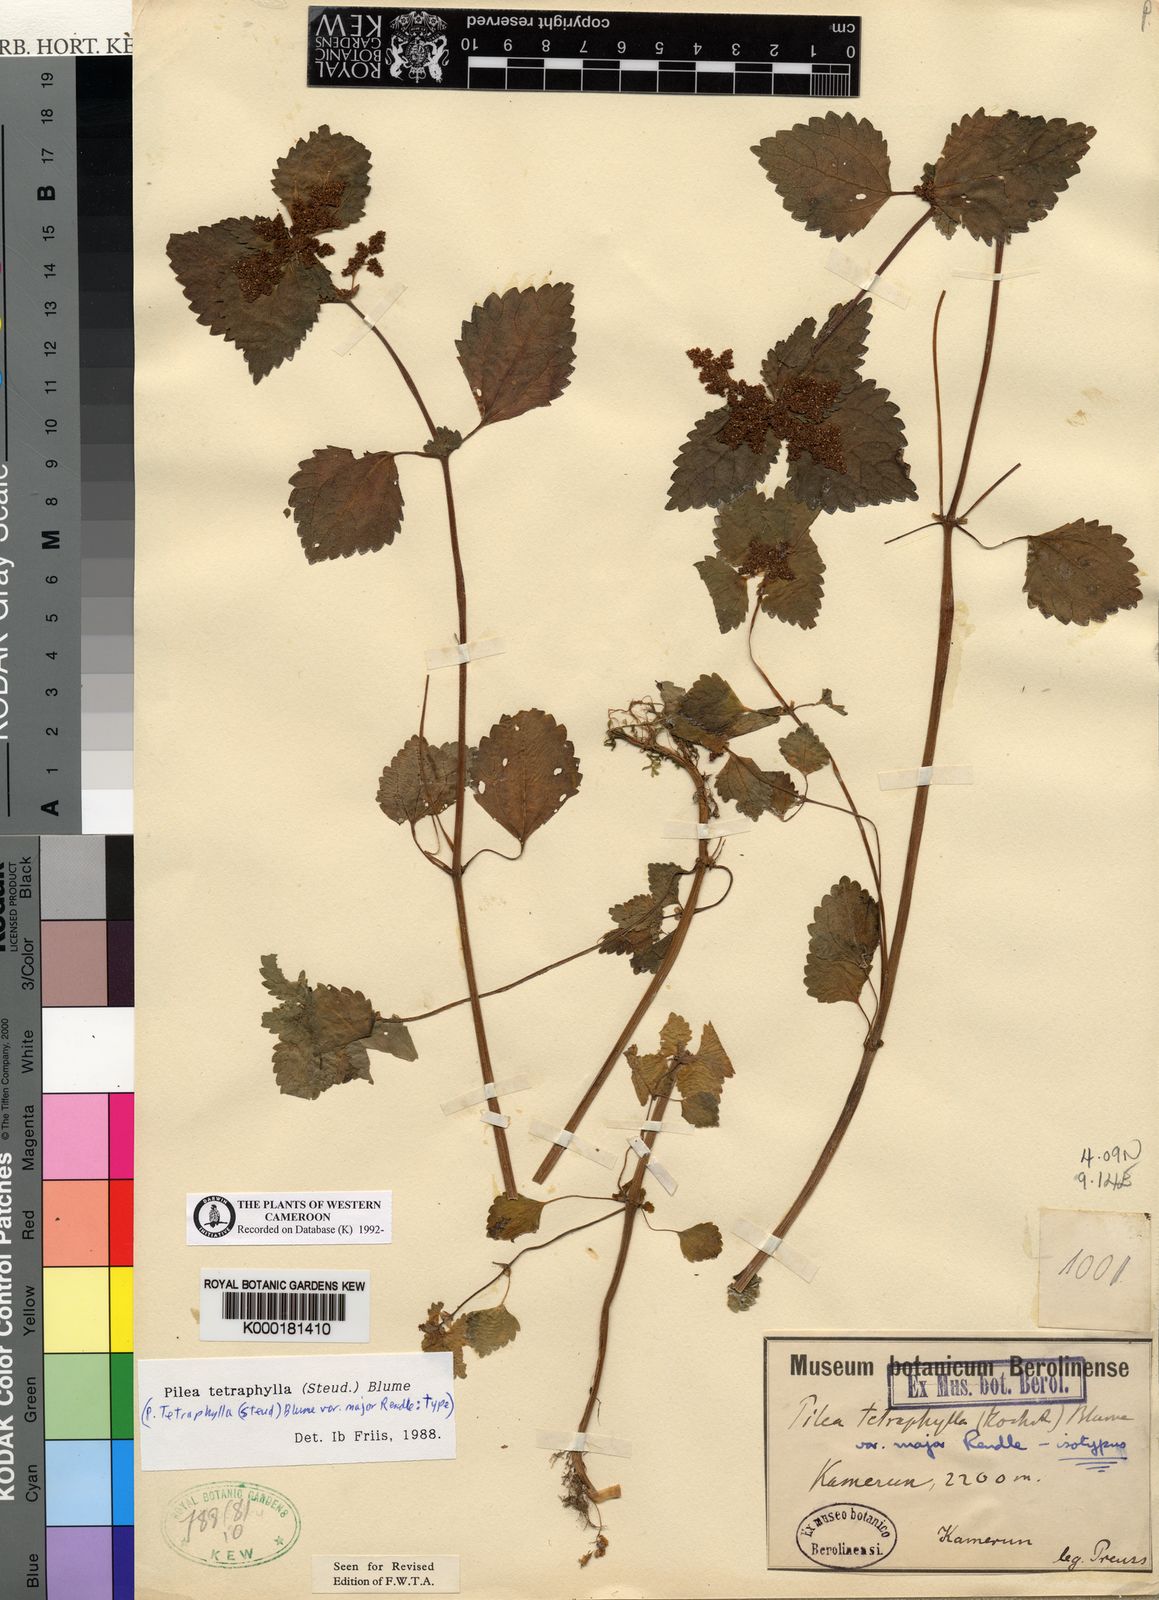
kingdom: Plantae
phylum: Tracheophyta
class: Magnoliopsida
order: Rosales
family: Urticaceae
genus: Pilea
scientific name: Pilea tetraphylla
